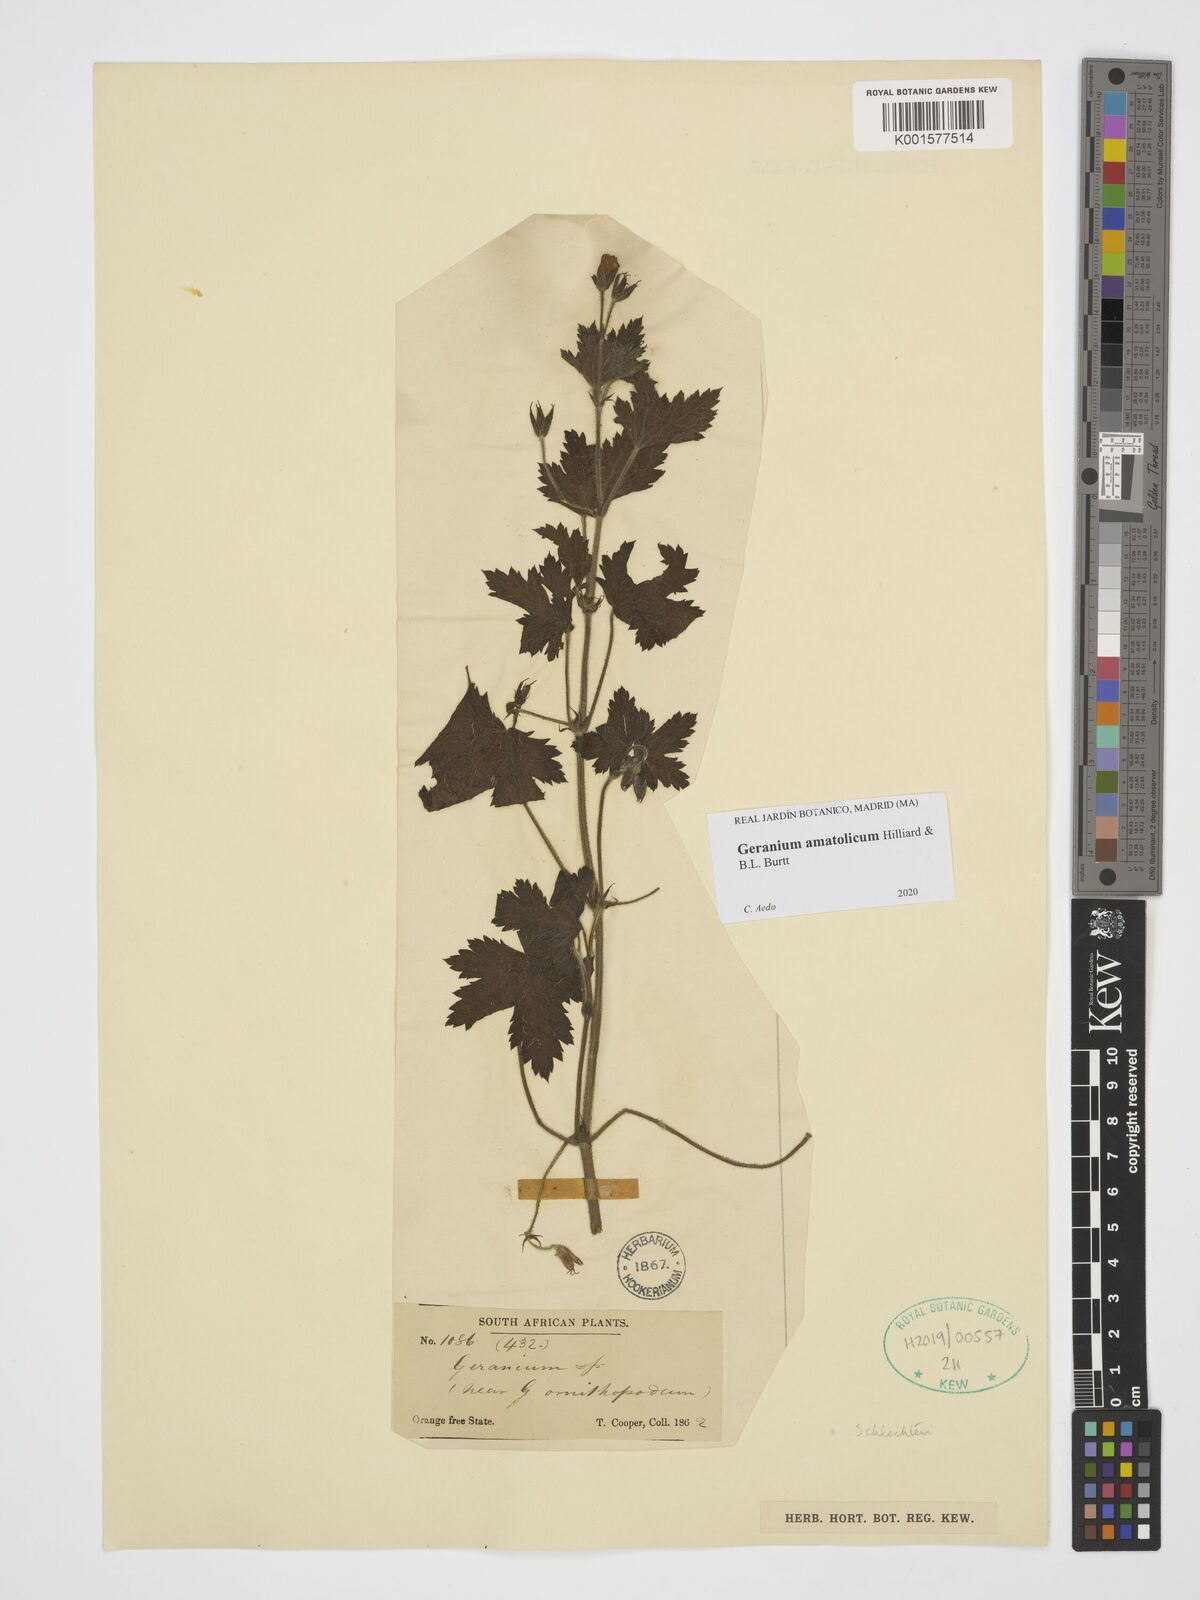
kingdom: Plantae
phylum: Tracheophyta
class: Magnoliopsida
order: Geraniales
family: Geraniaceae
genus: Geranium
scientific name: Geranium amatolicum
